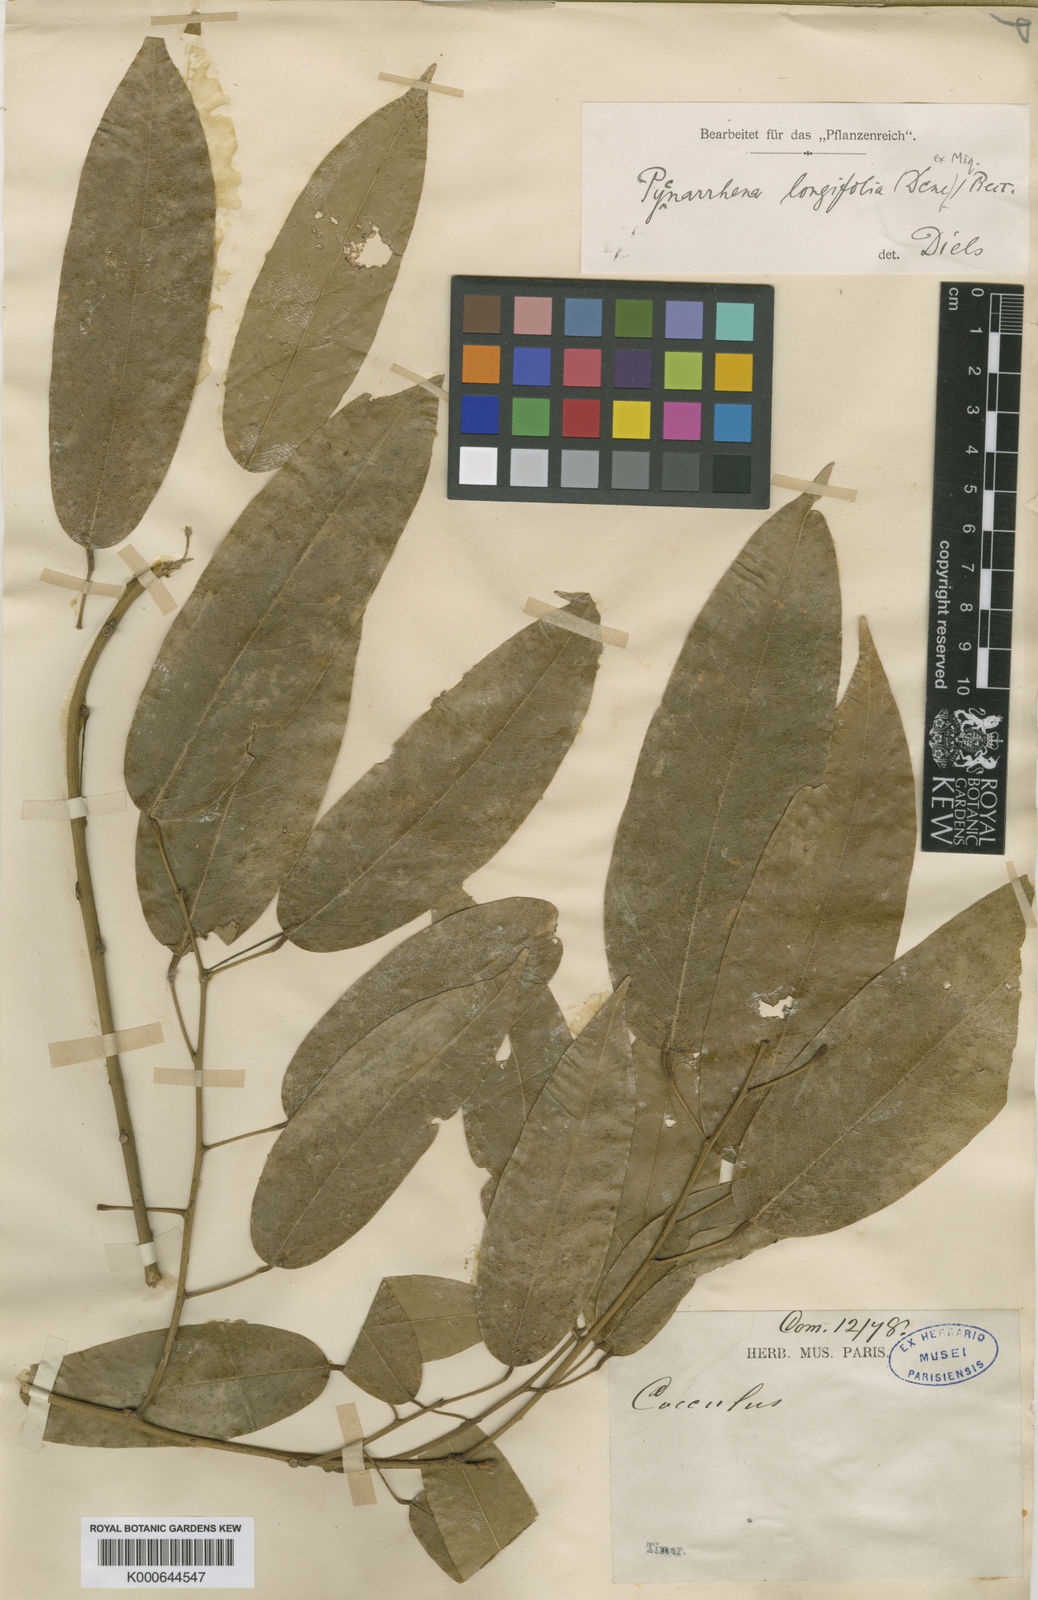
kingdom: Plantae
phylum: Tracheophyta
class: Magnoliopsida
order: Ranunculales
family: Menispermaceae
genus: Pycnarrhena
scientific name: Pycnarrhena longifolia
